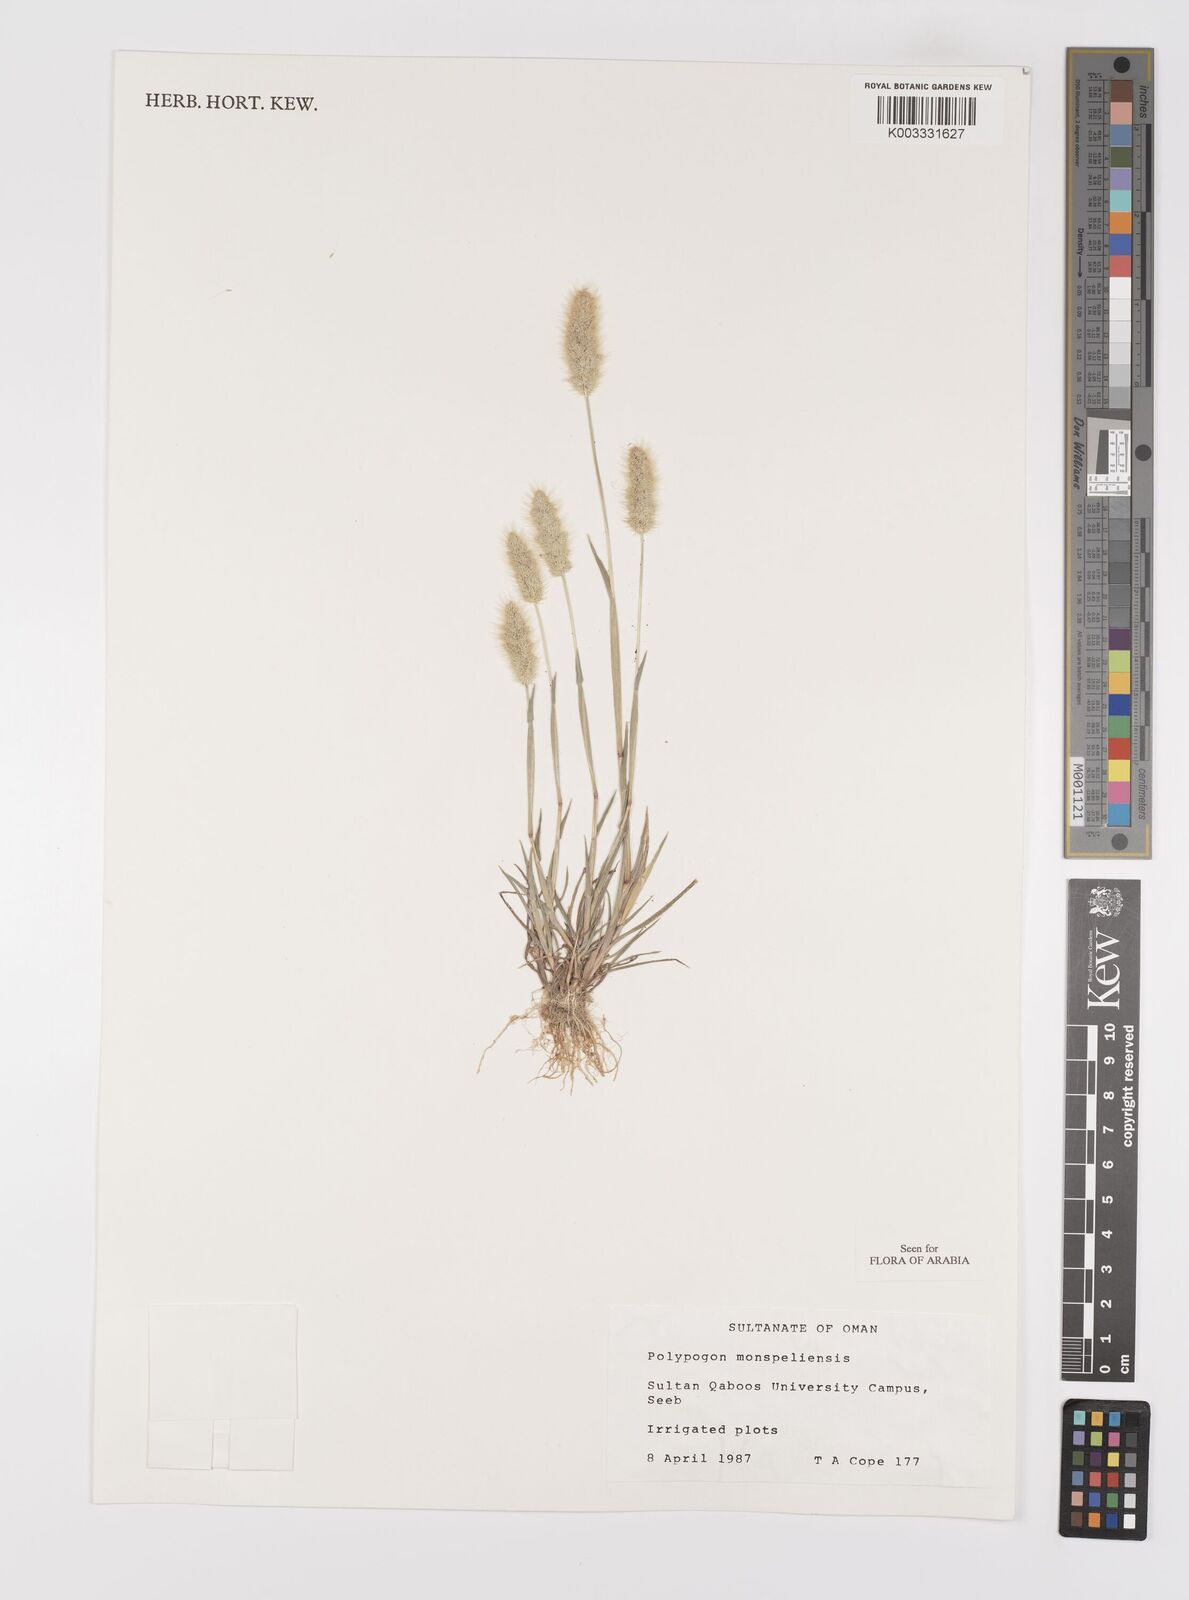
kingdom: Plantae
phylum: Tracheophyta
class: Liliopsida
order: Poales
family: Poaceae
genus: Polypogon
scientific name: Polypogon monspeliensis
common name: Annual rabbitsfoot grass
